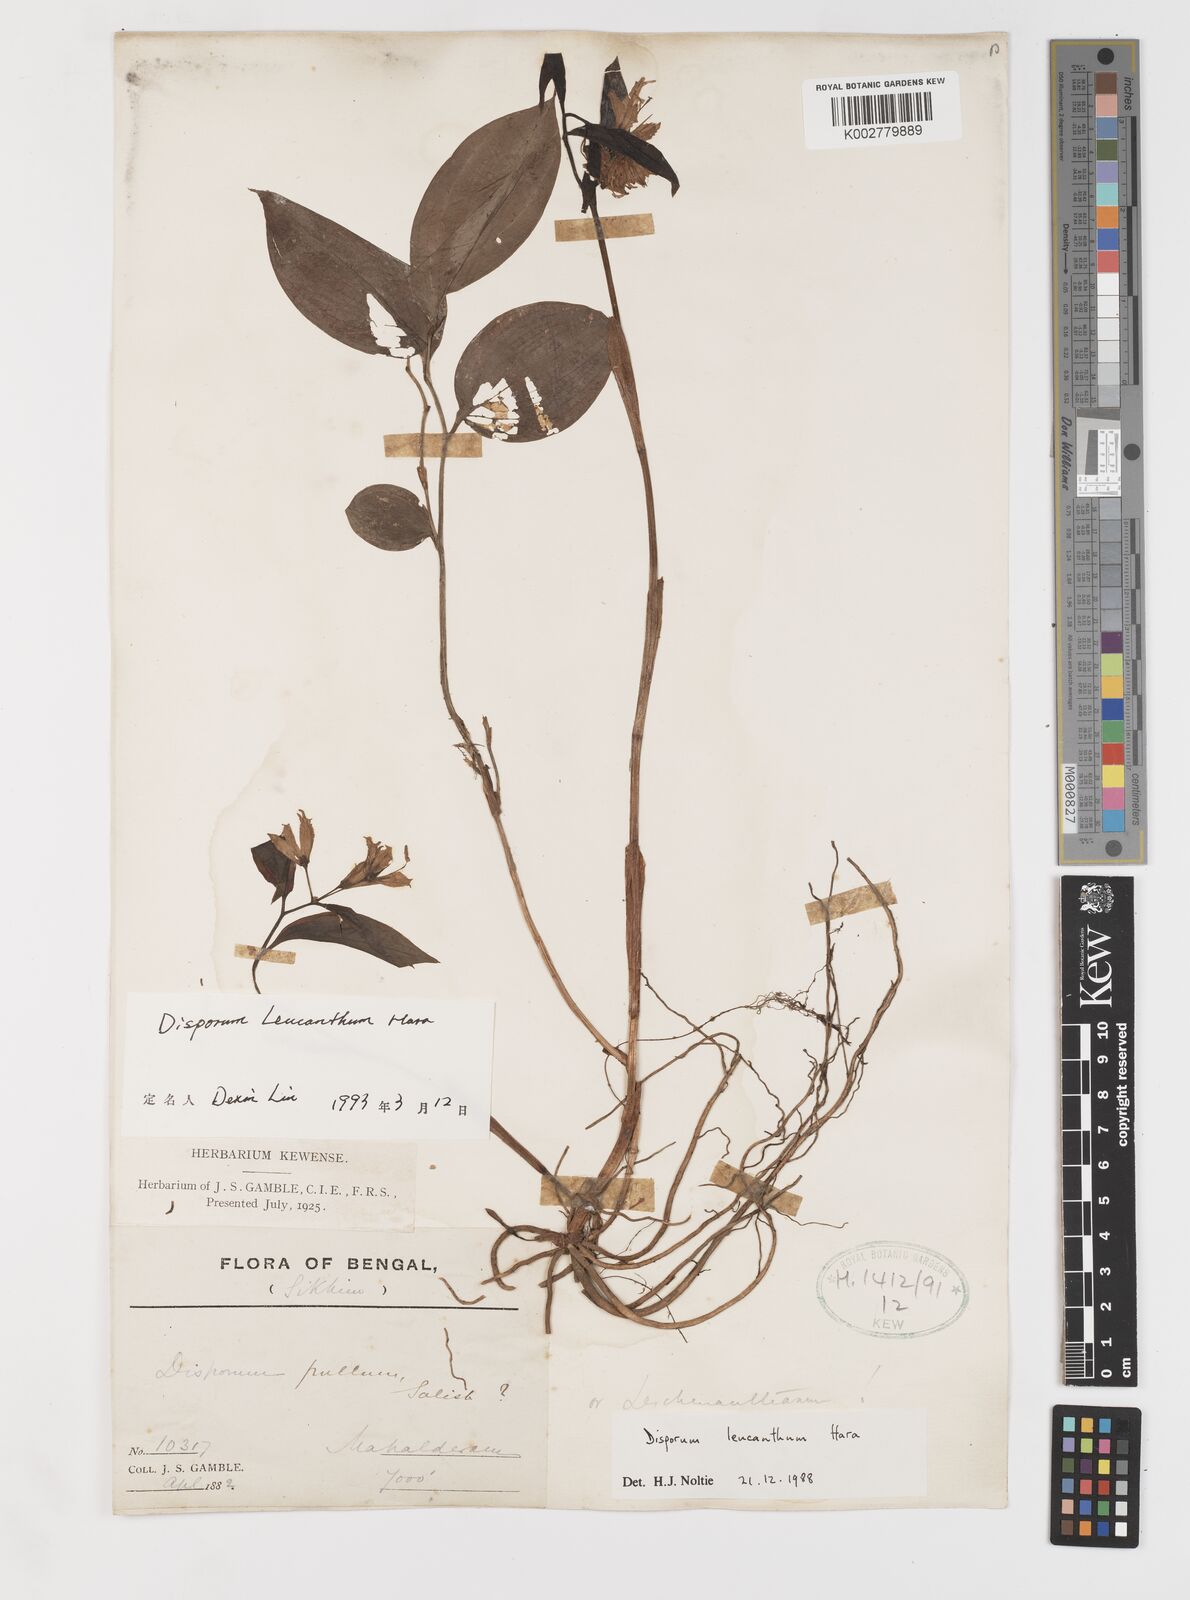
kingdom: Plantae
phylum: Tracheophyta
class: Liliopsida
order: Liliales
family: Colchicaceae
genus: Disporum
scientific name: Disporum leucanthum
